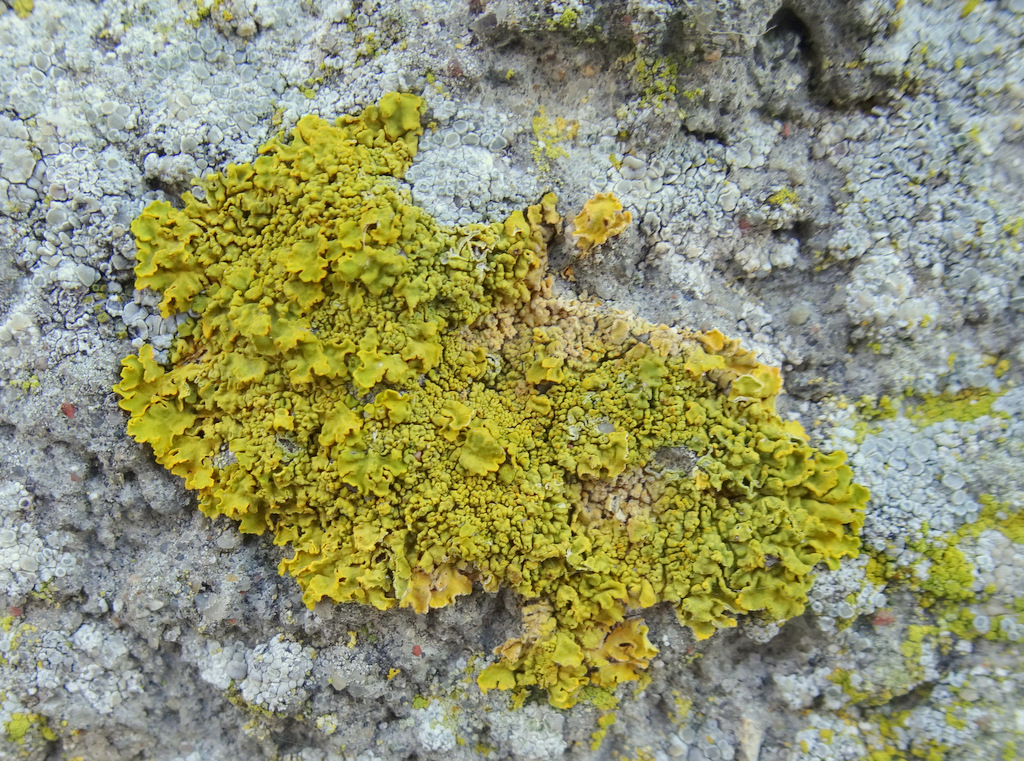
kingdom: Fungi
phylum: Ascomycota
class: Lecanoromycetes
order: Teloschistales
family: Teloschistaceae
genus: Xanthoria
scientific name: Xanthoria calcicola
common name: vortet væggelav
